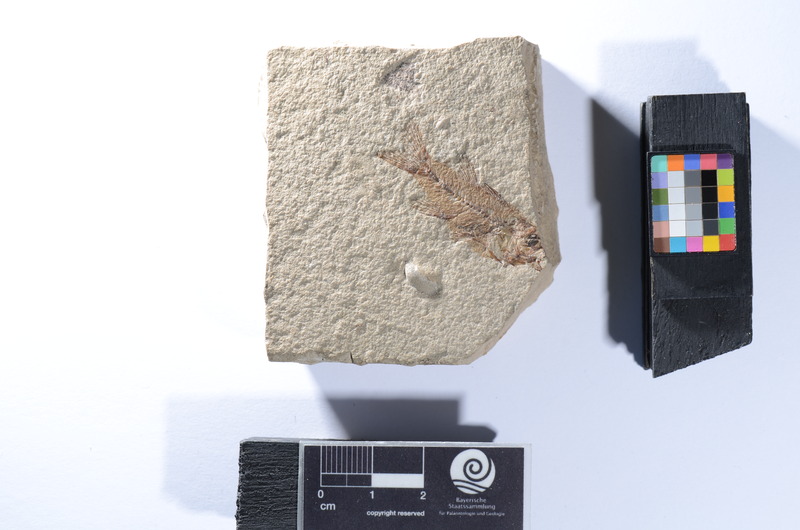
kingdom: Animalia
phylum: Chordata
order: Perciformes
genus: Smerdis
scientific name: Smerdis Perca minuta
